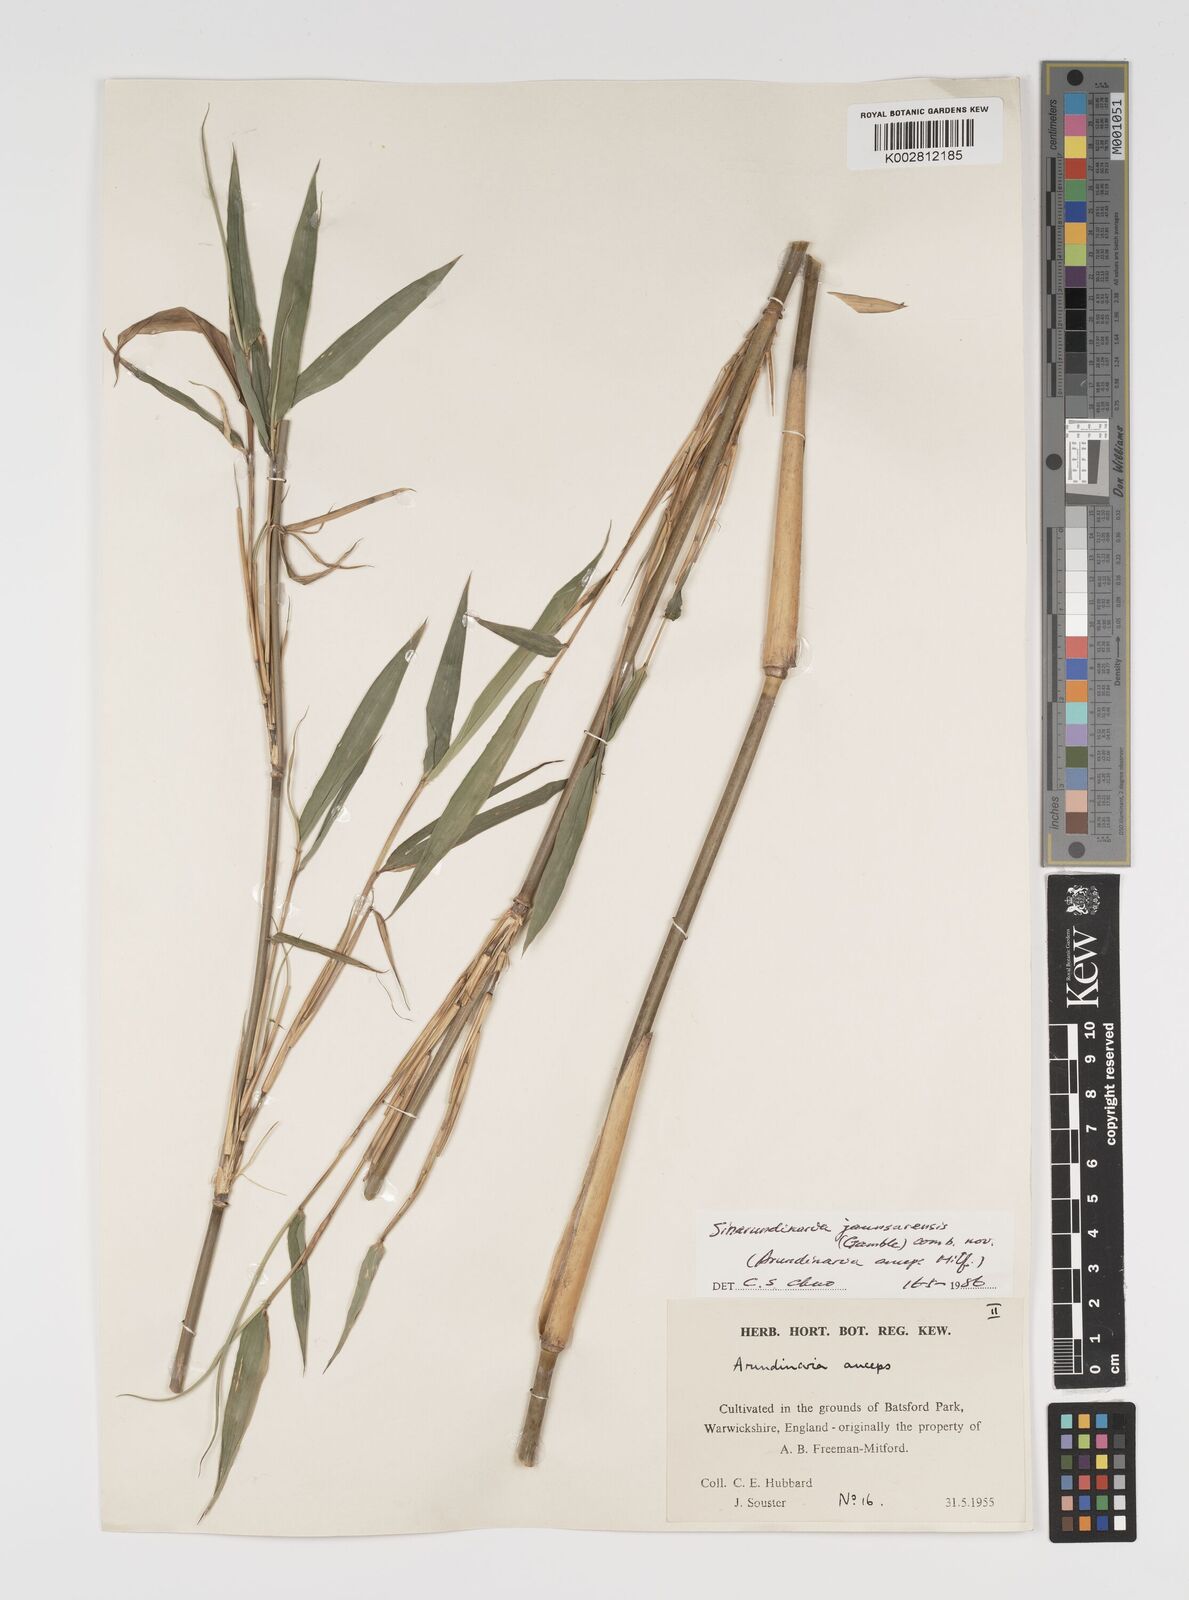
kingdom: Plantae
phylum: Tracheophyta
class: Liliopsida
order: Poales
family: Poaceae
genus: Yushania
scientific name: Yushania anceps
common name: Indian fountain-bamboo
